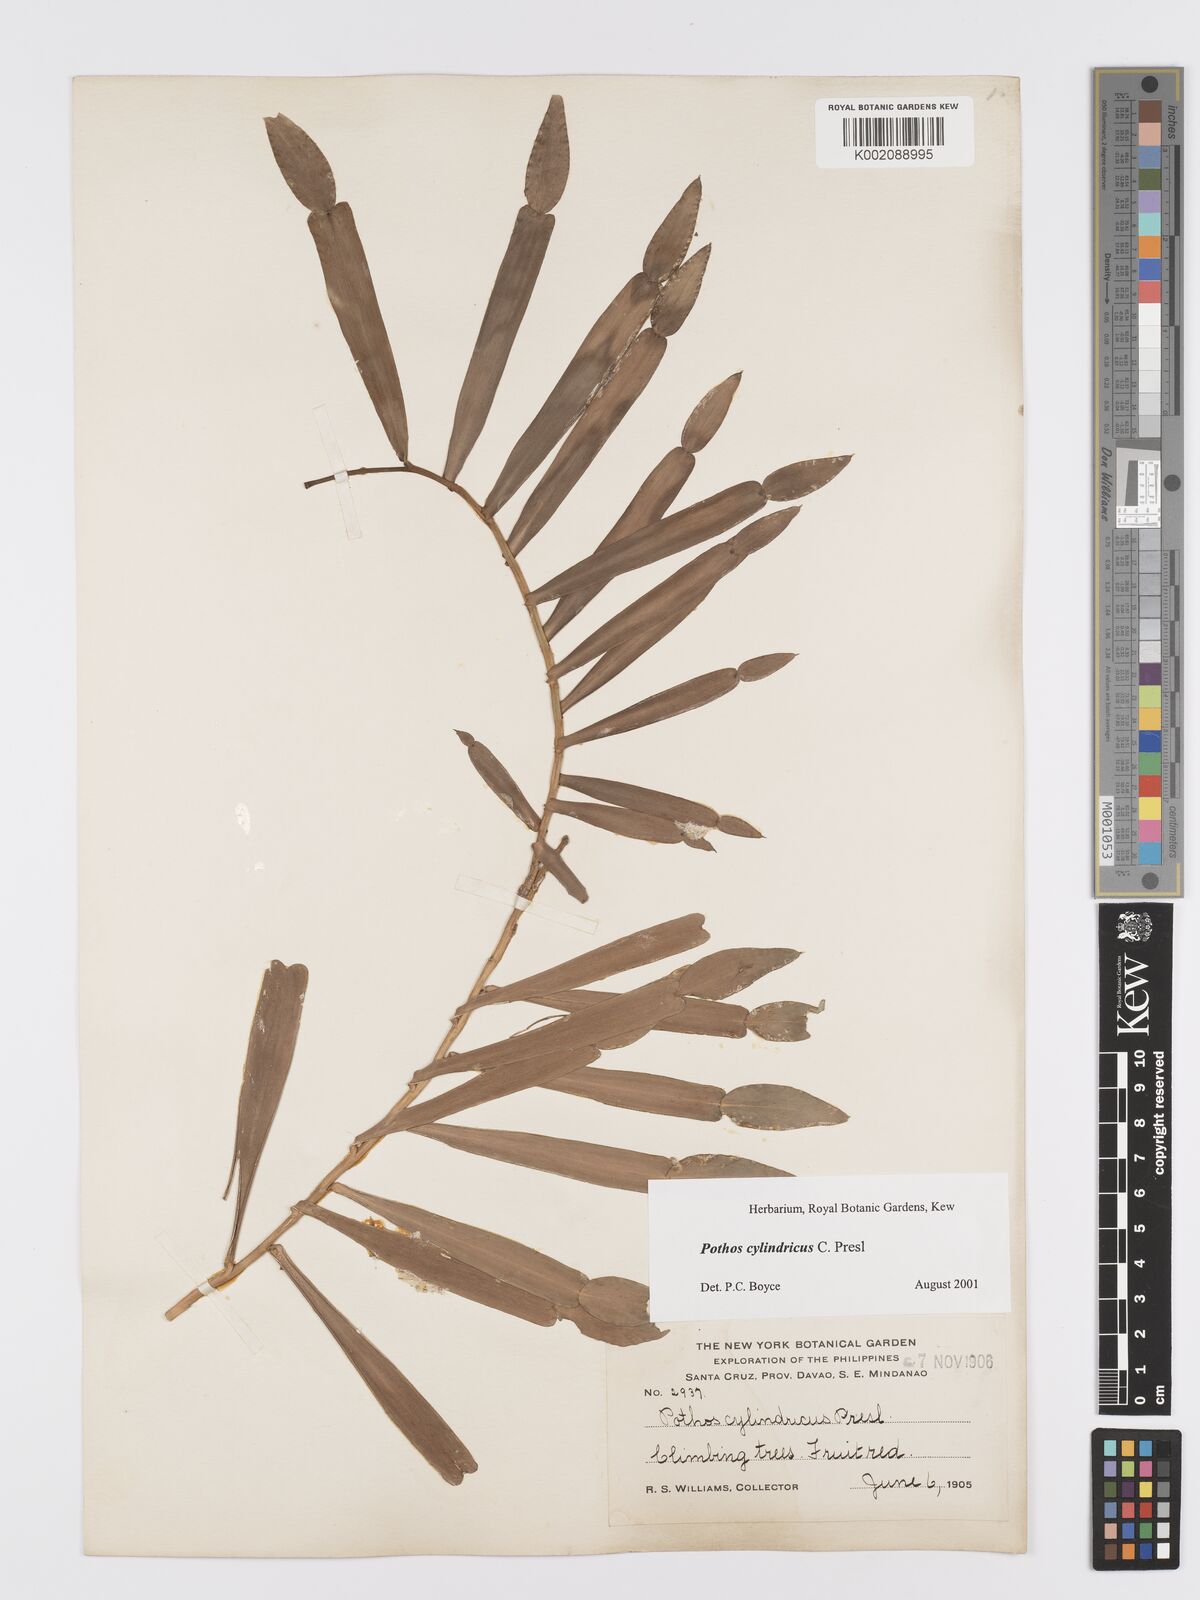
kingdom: Plantae
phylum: Tracheophyta
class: Liliopsida
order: Alismatales
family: Araceae
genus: Pothos
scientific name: Pothos cylindricus
